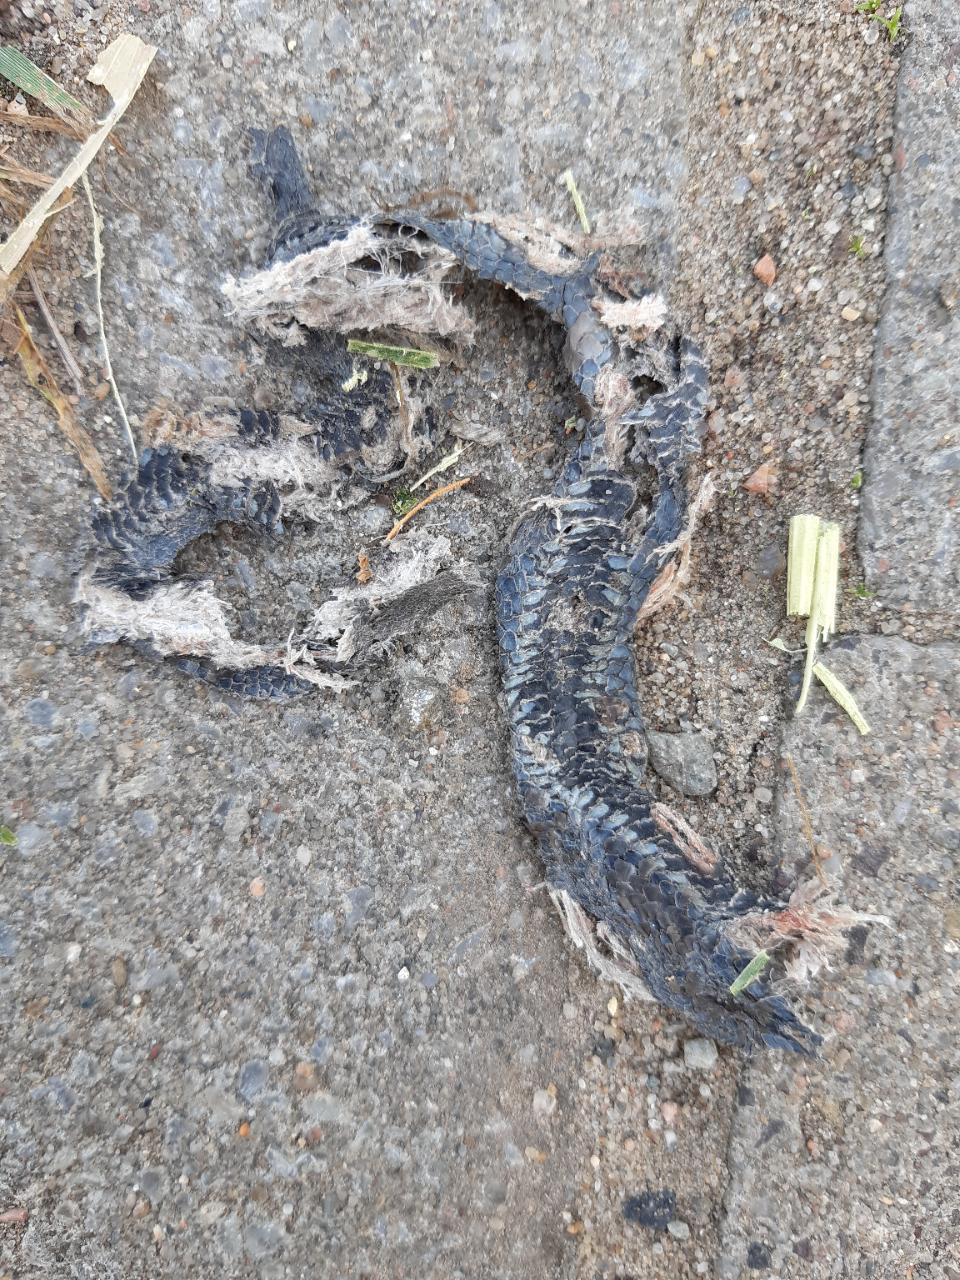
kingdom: Animalia
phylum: Chordata
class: Squamata
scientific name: Squamata
